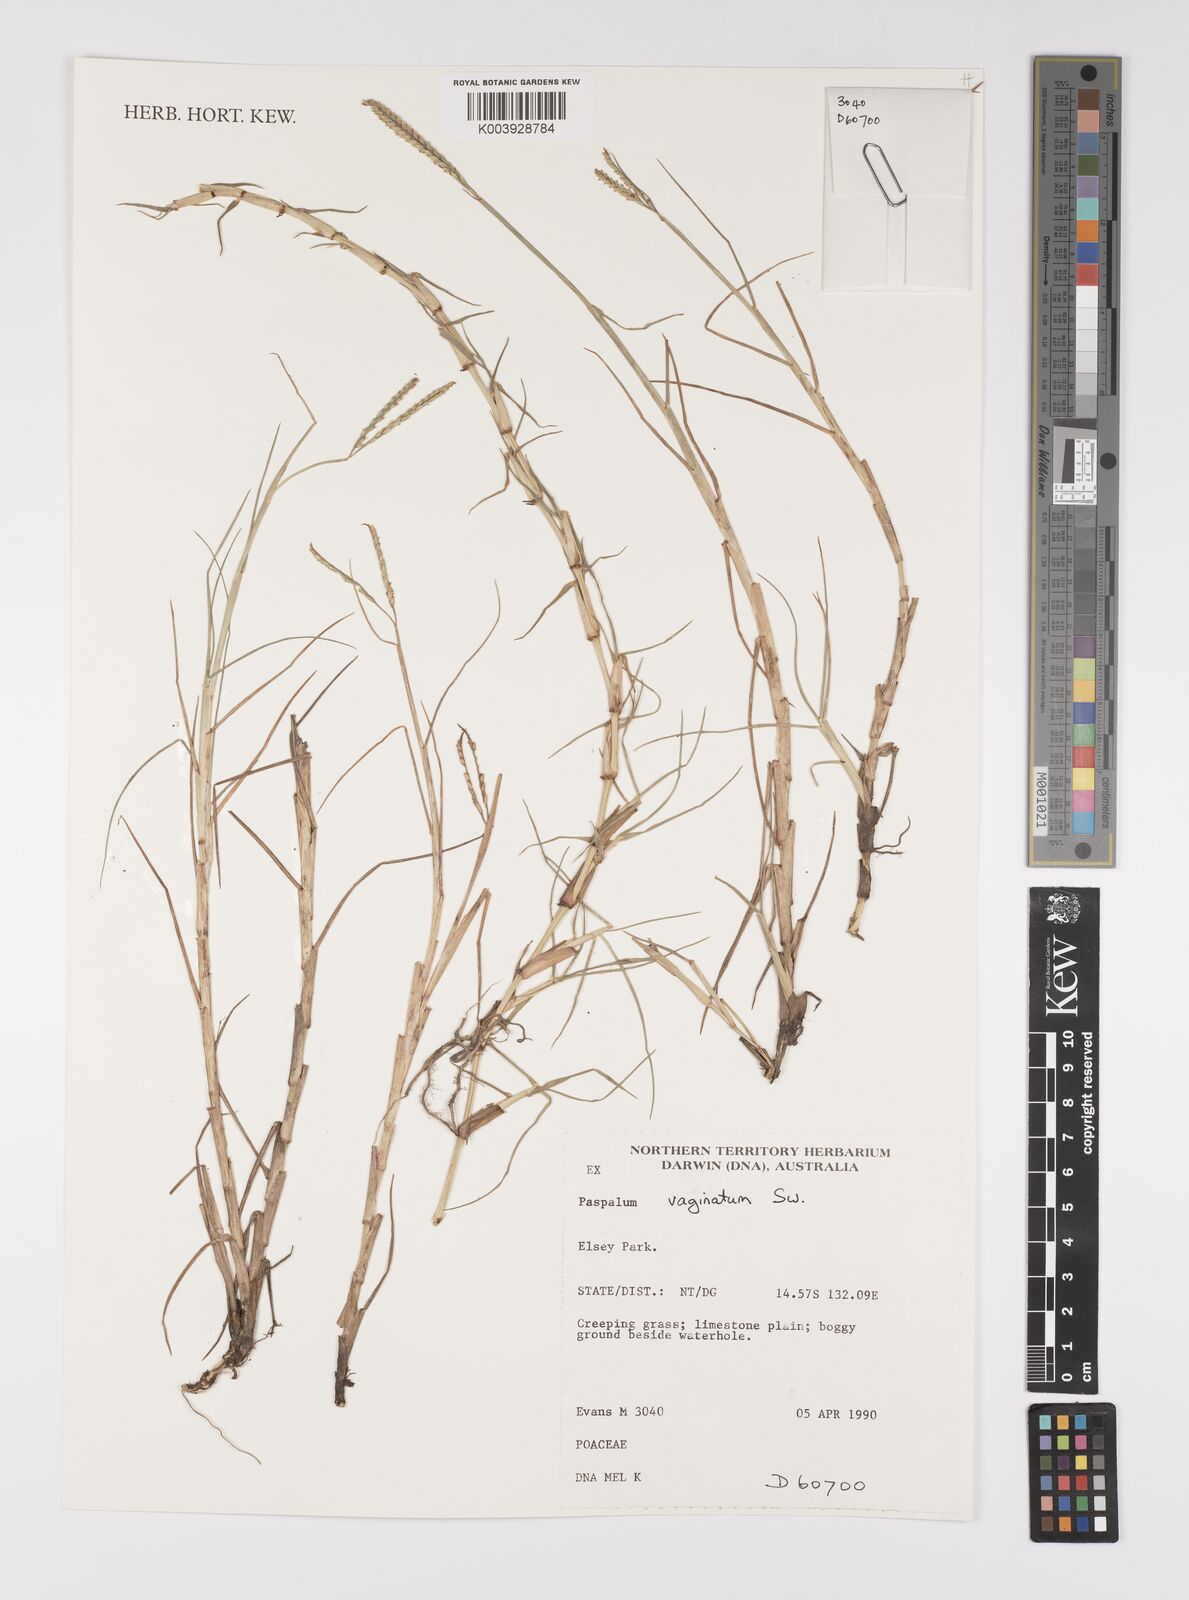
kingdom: Plantae
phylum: Tracheophyta
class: Liliopsida
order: Poales
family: Poaceae
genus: Paspalum
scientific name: Paspalum vaginatum
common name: Seashore paspalum
